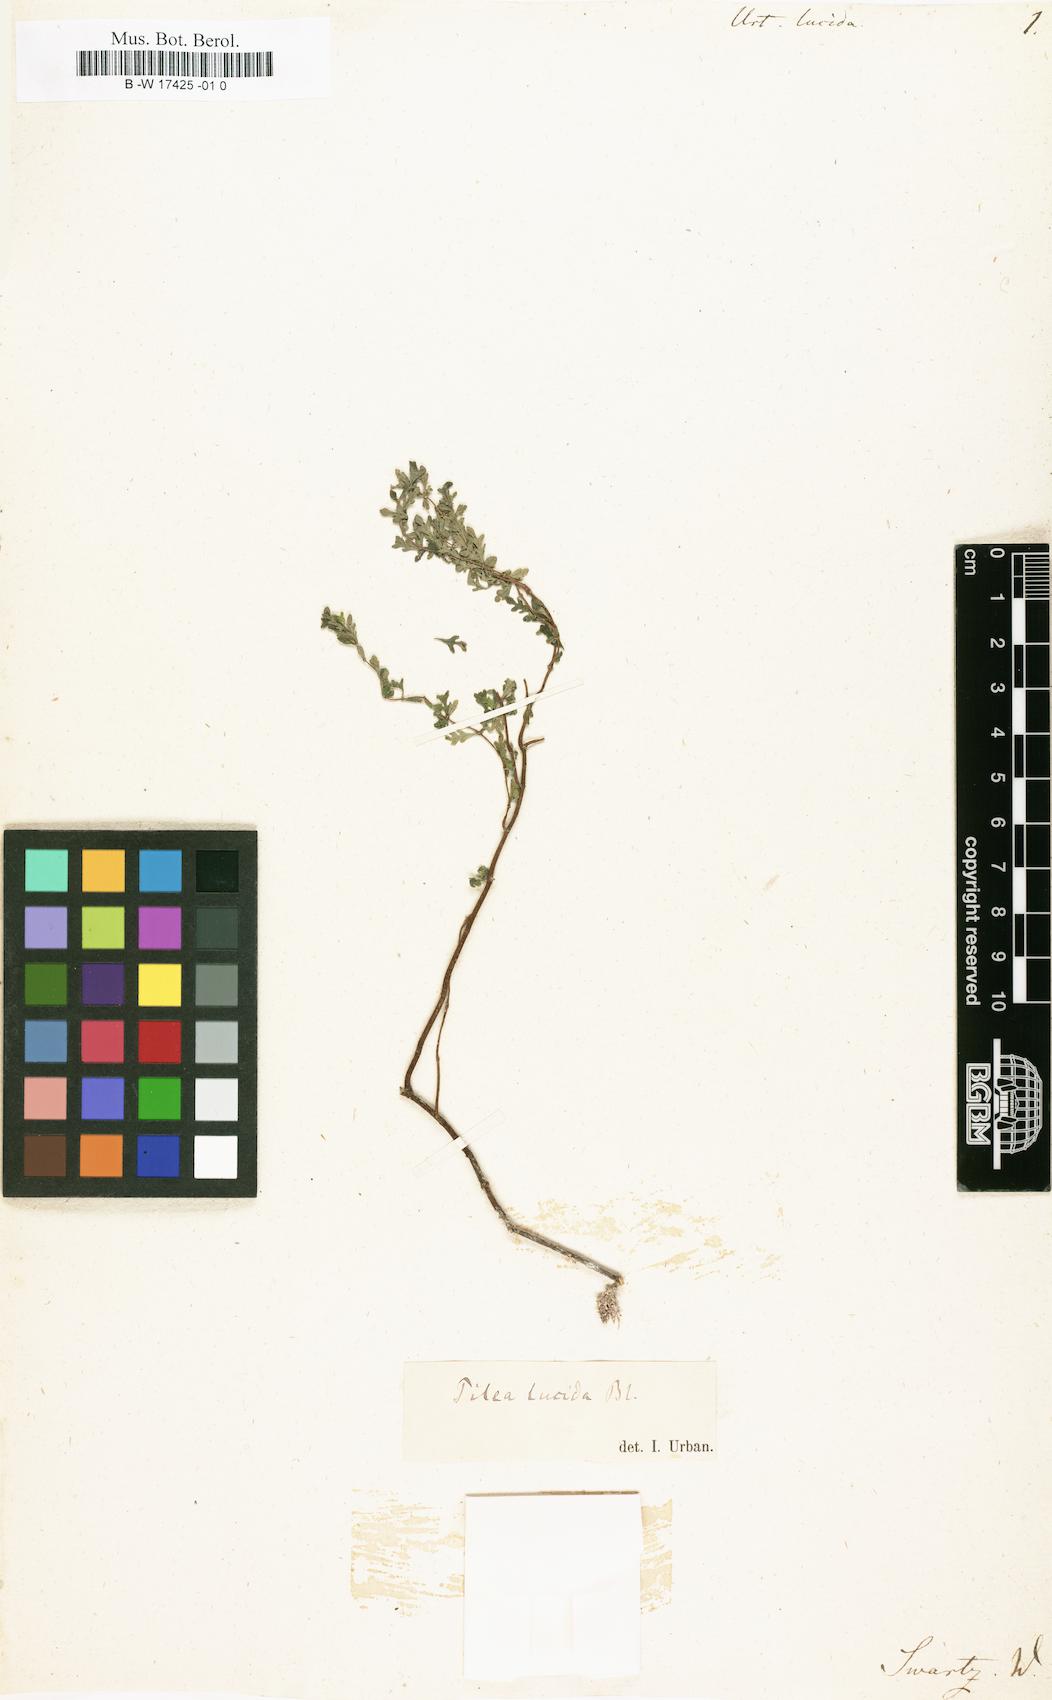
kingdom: Plantae
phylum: Tracheophyta
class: Magnoliopsida
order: Rosales
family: Urticaceae
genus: Pilea
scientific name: Pilea lucida
